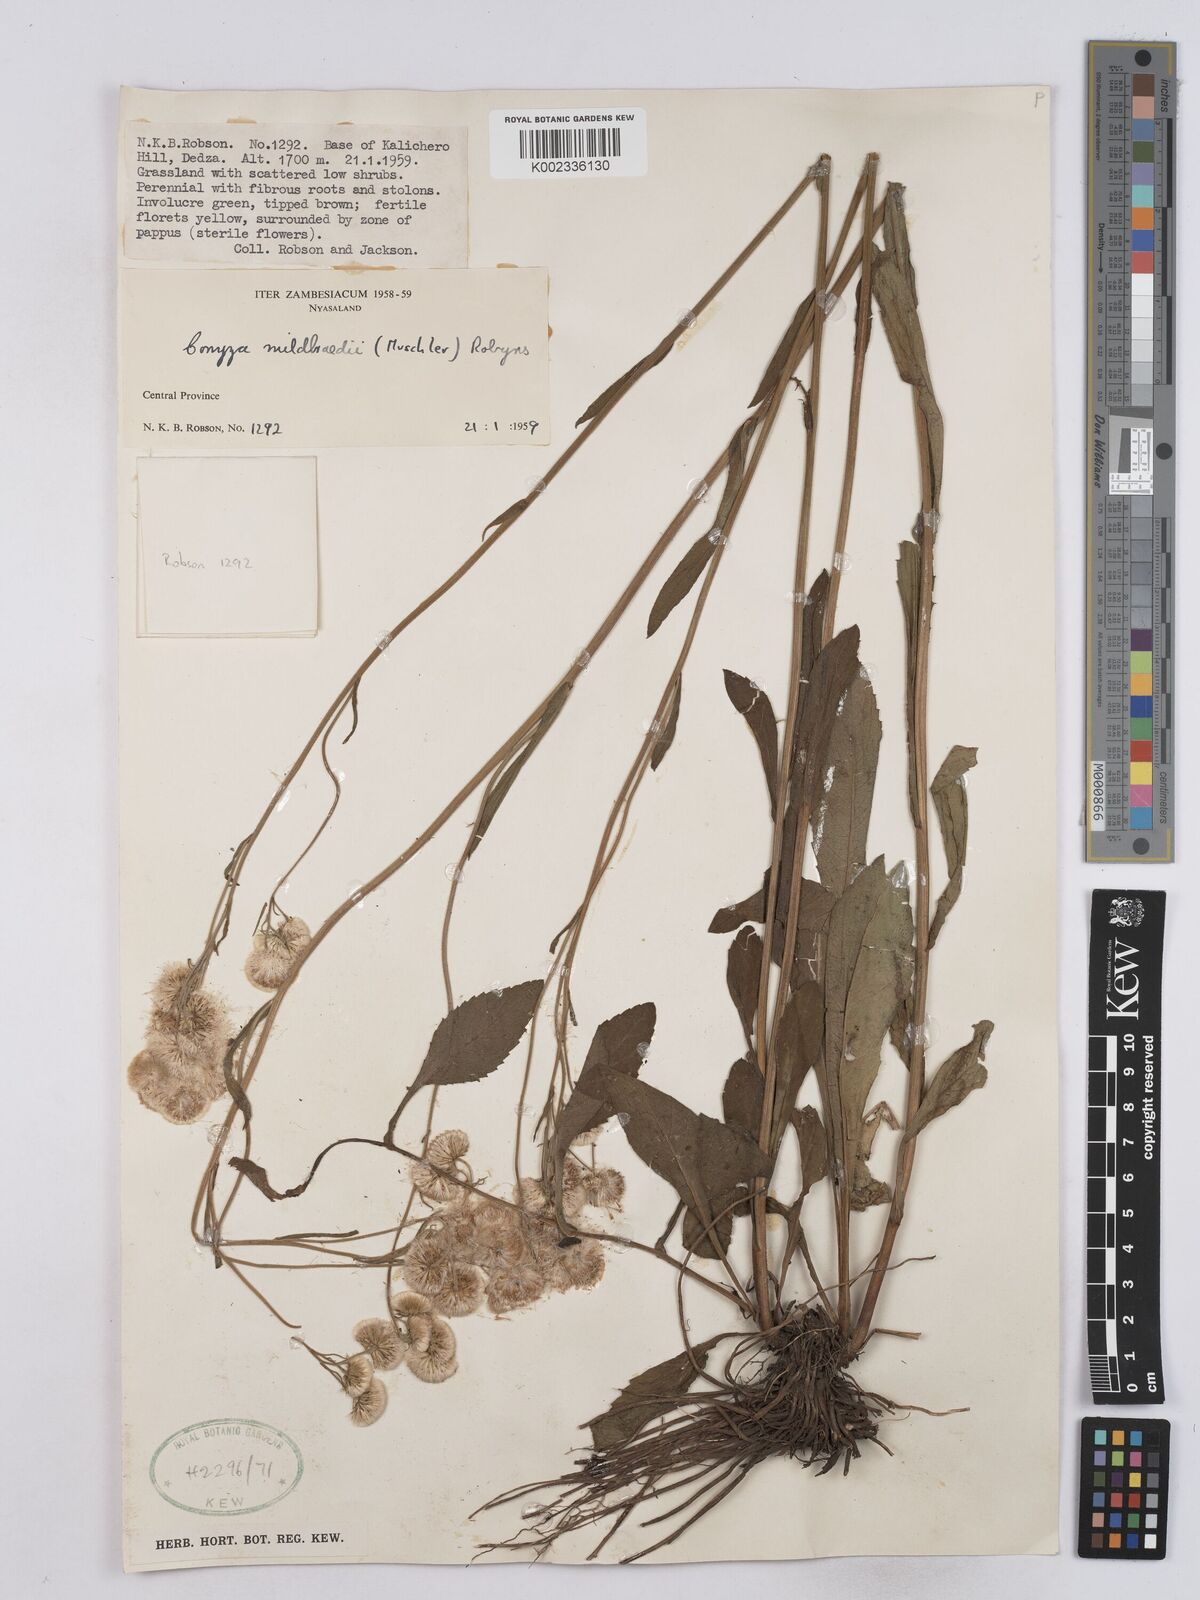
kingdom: Plantae
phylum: Tracheophyta
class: Magnoliopsida
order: Asterales
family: Asteraceae
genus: Conyza
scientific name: Conyza limosa
